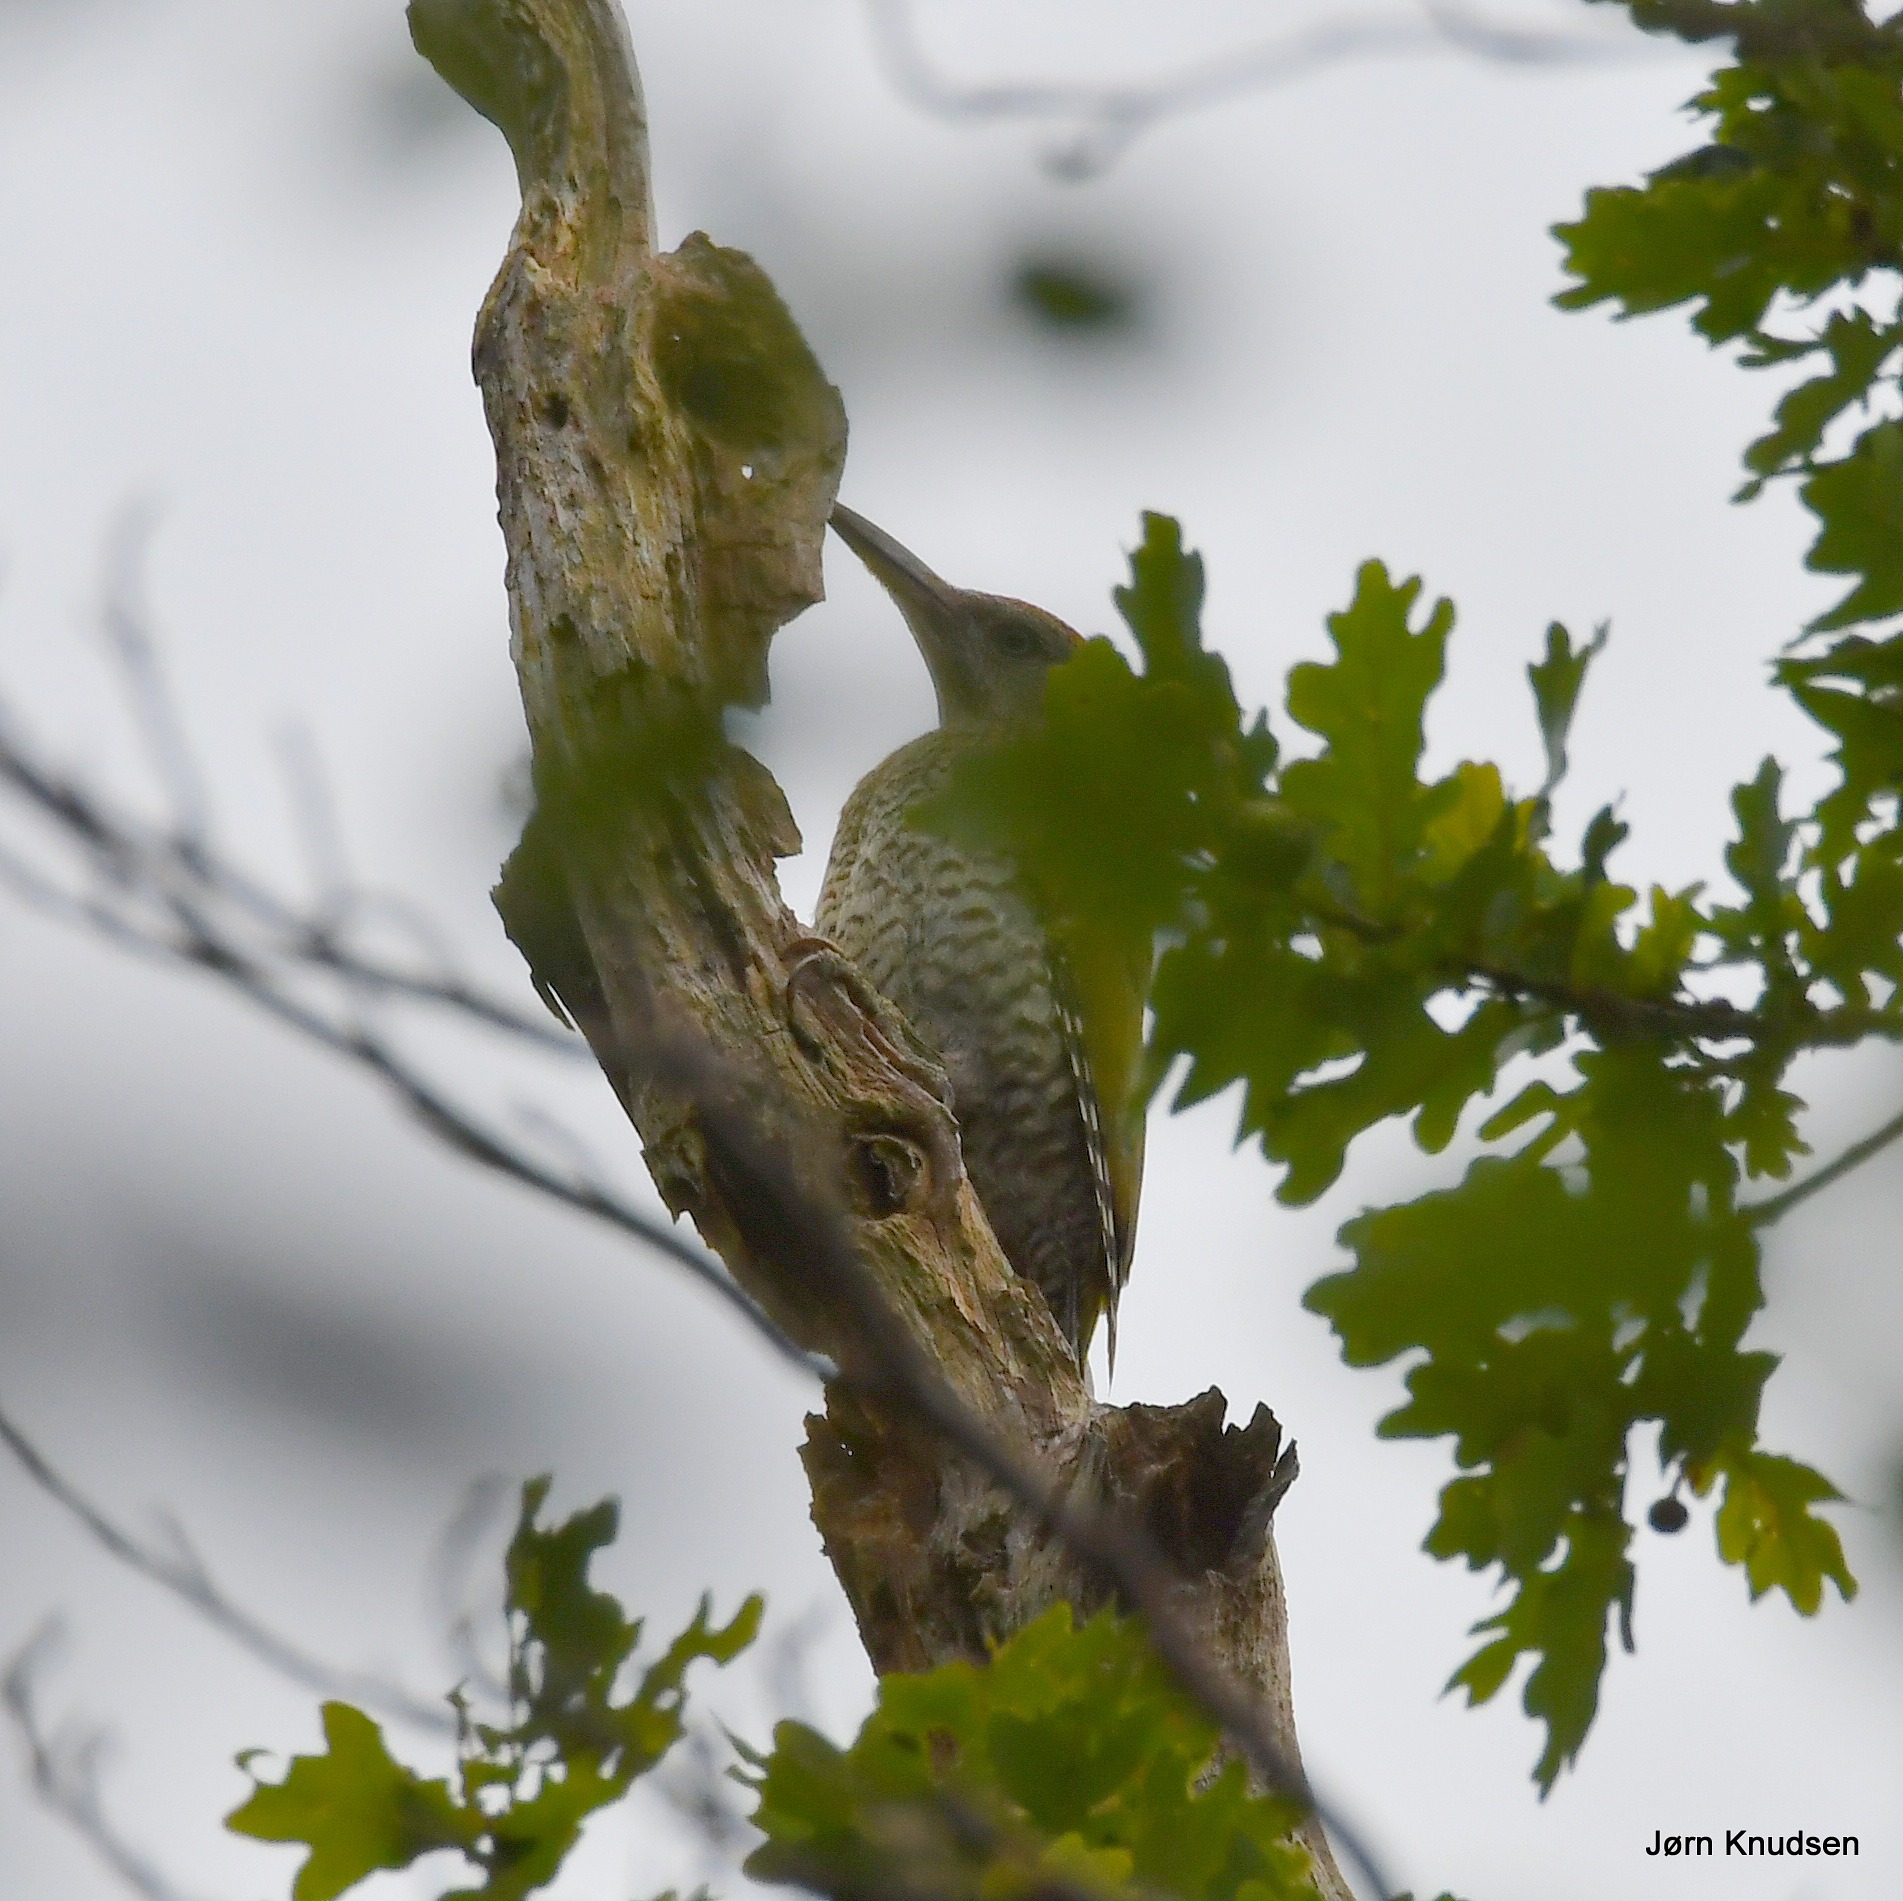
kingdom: Animalia
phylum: Chordata
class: Aves
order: Piciformes
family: Picidae
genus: Picus
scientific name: Picus viridis
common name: Grønspætte
